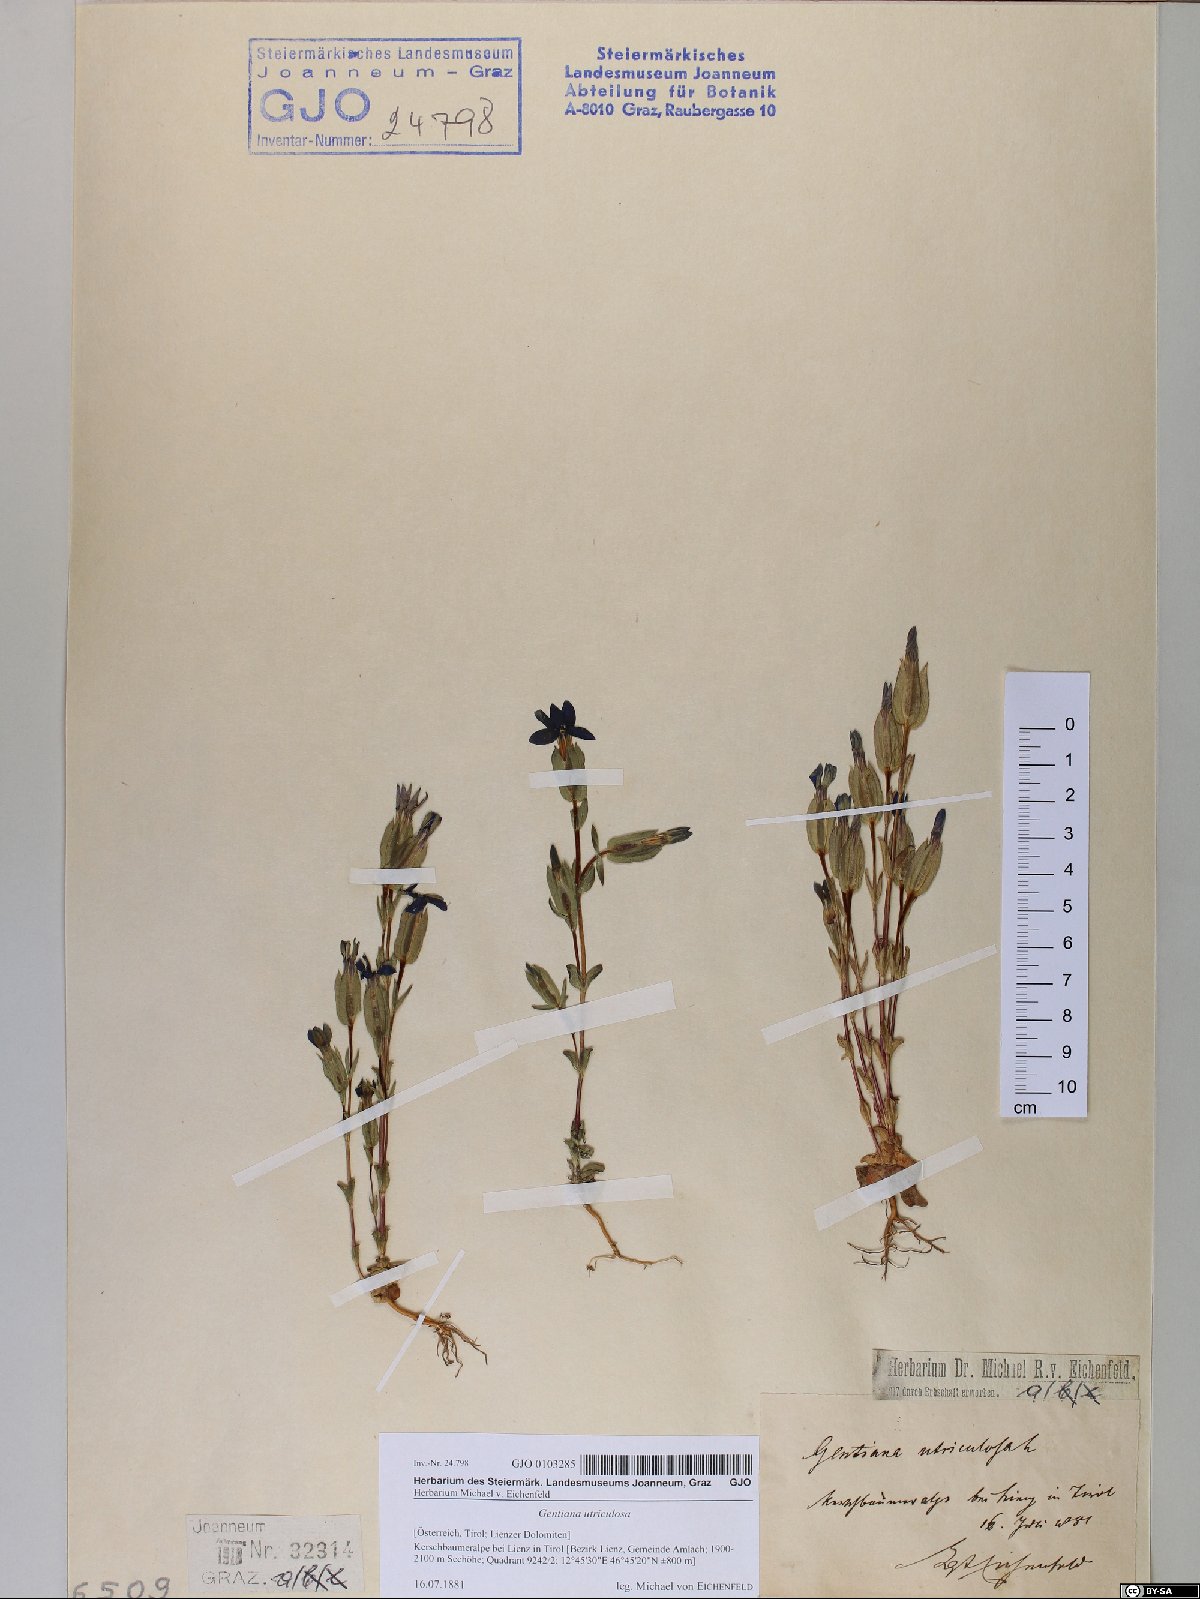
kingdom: Plantae
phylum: Tracheophyta
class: Magnoliopsida
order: Gentianales
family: Gentianaceae
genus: Gentiana
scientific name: Gentiana utriculosa
